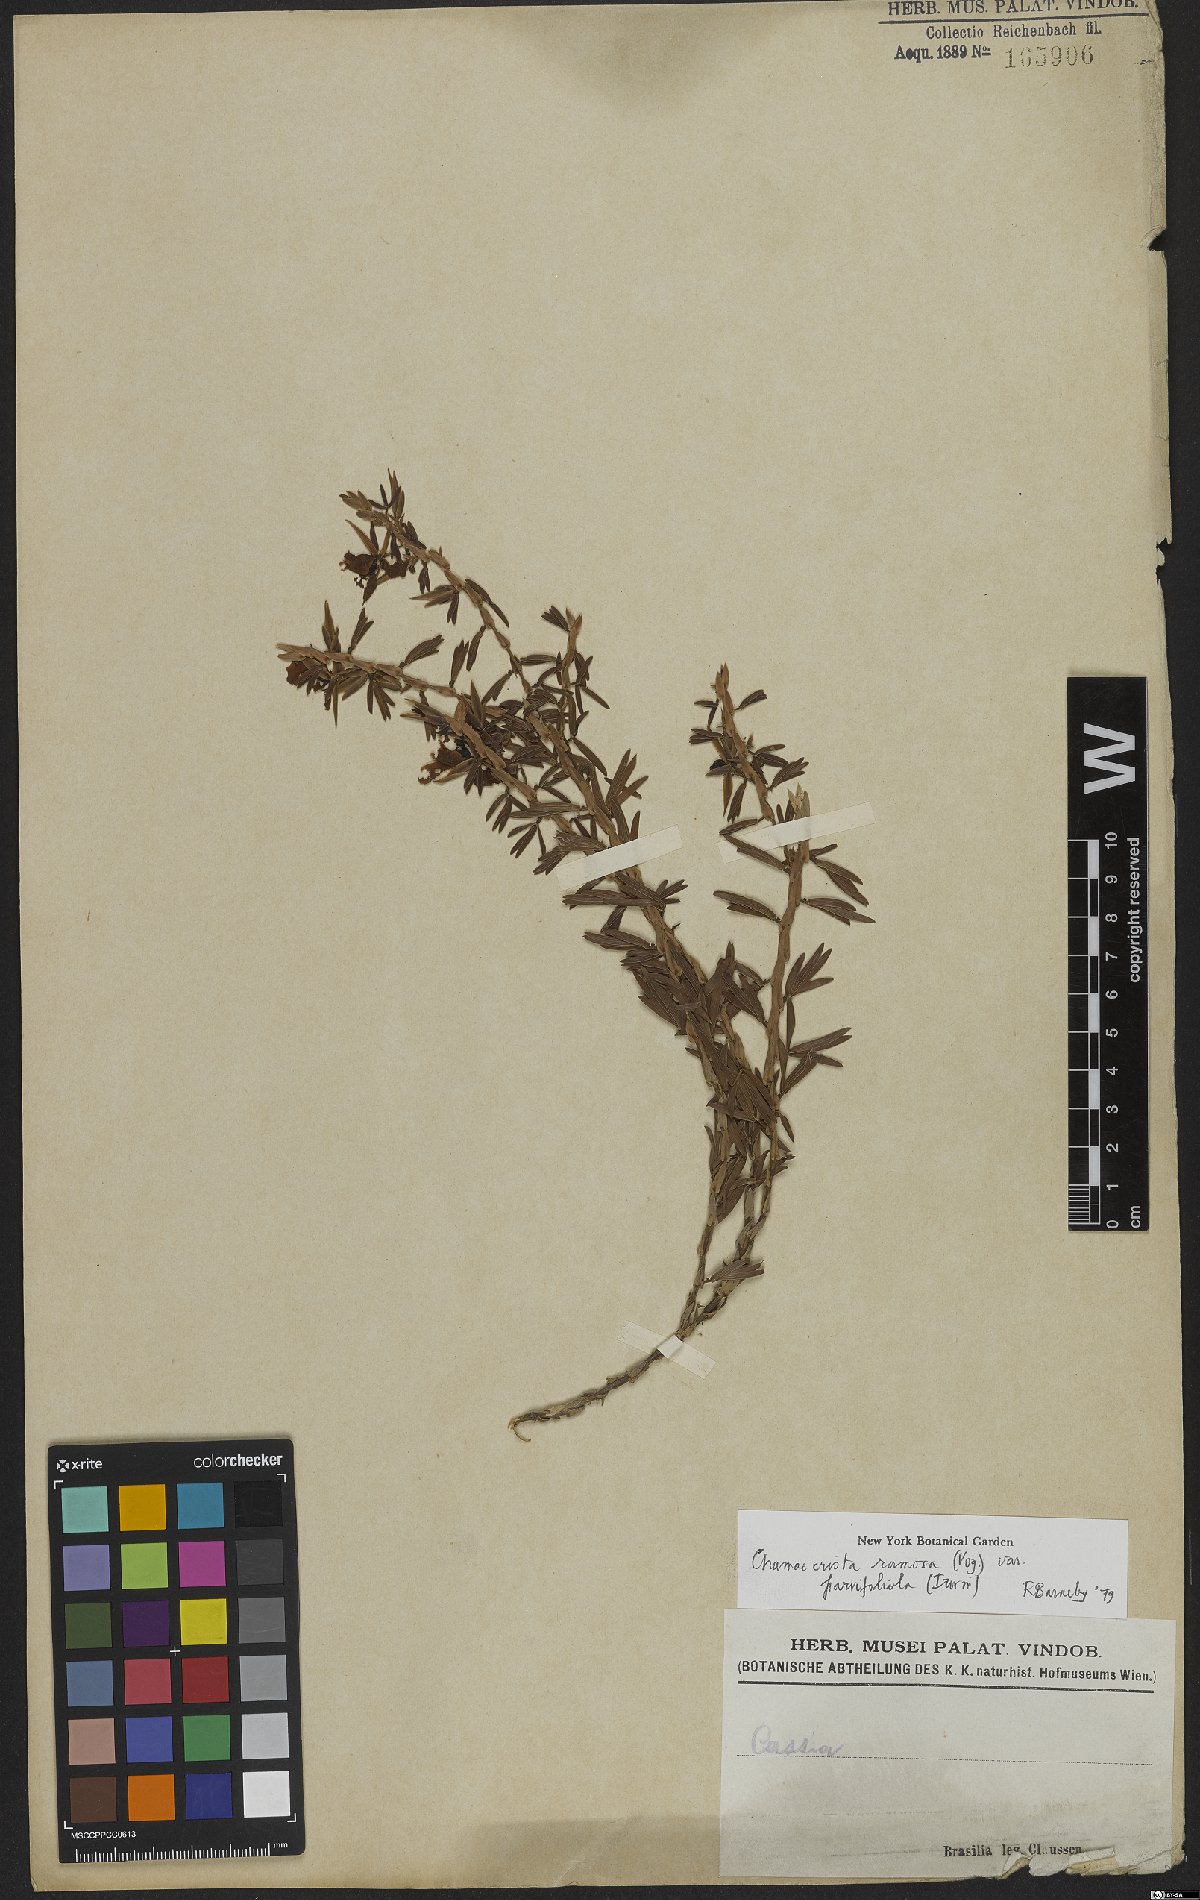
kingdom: Plantae
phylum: Tracheophyta
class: Magnoliopsida
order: Fabales
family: Fabaceae
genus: Chamaecrista
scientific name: Chamaecrista ramosa
